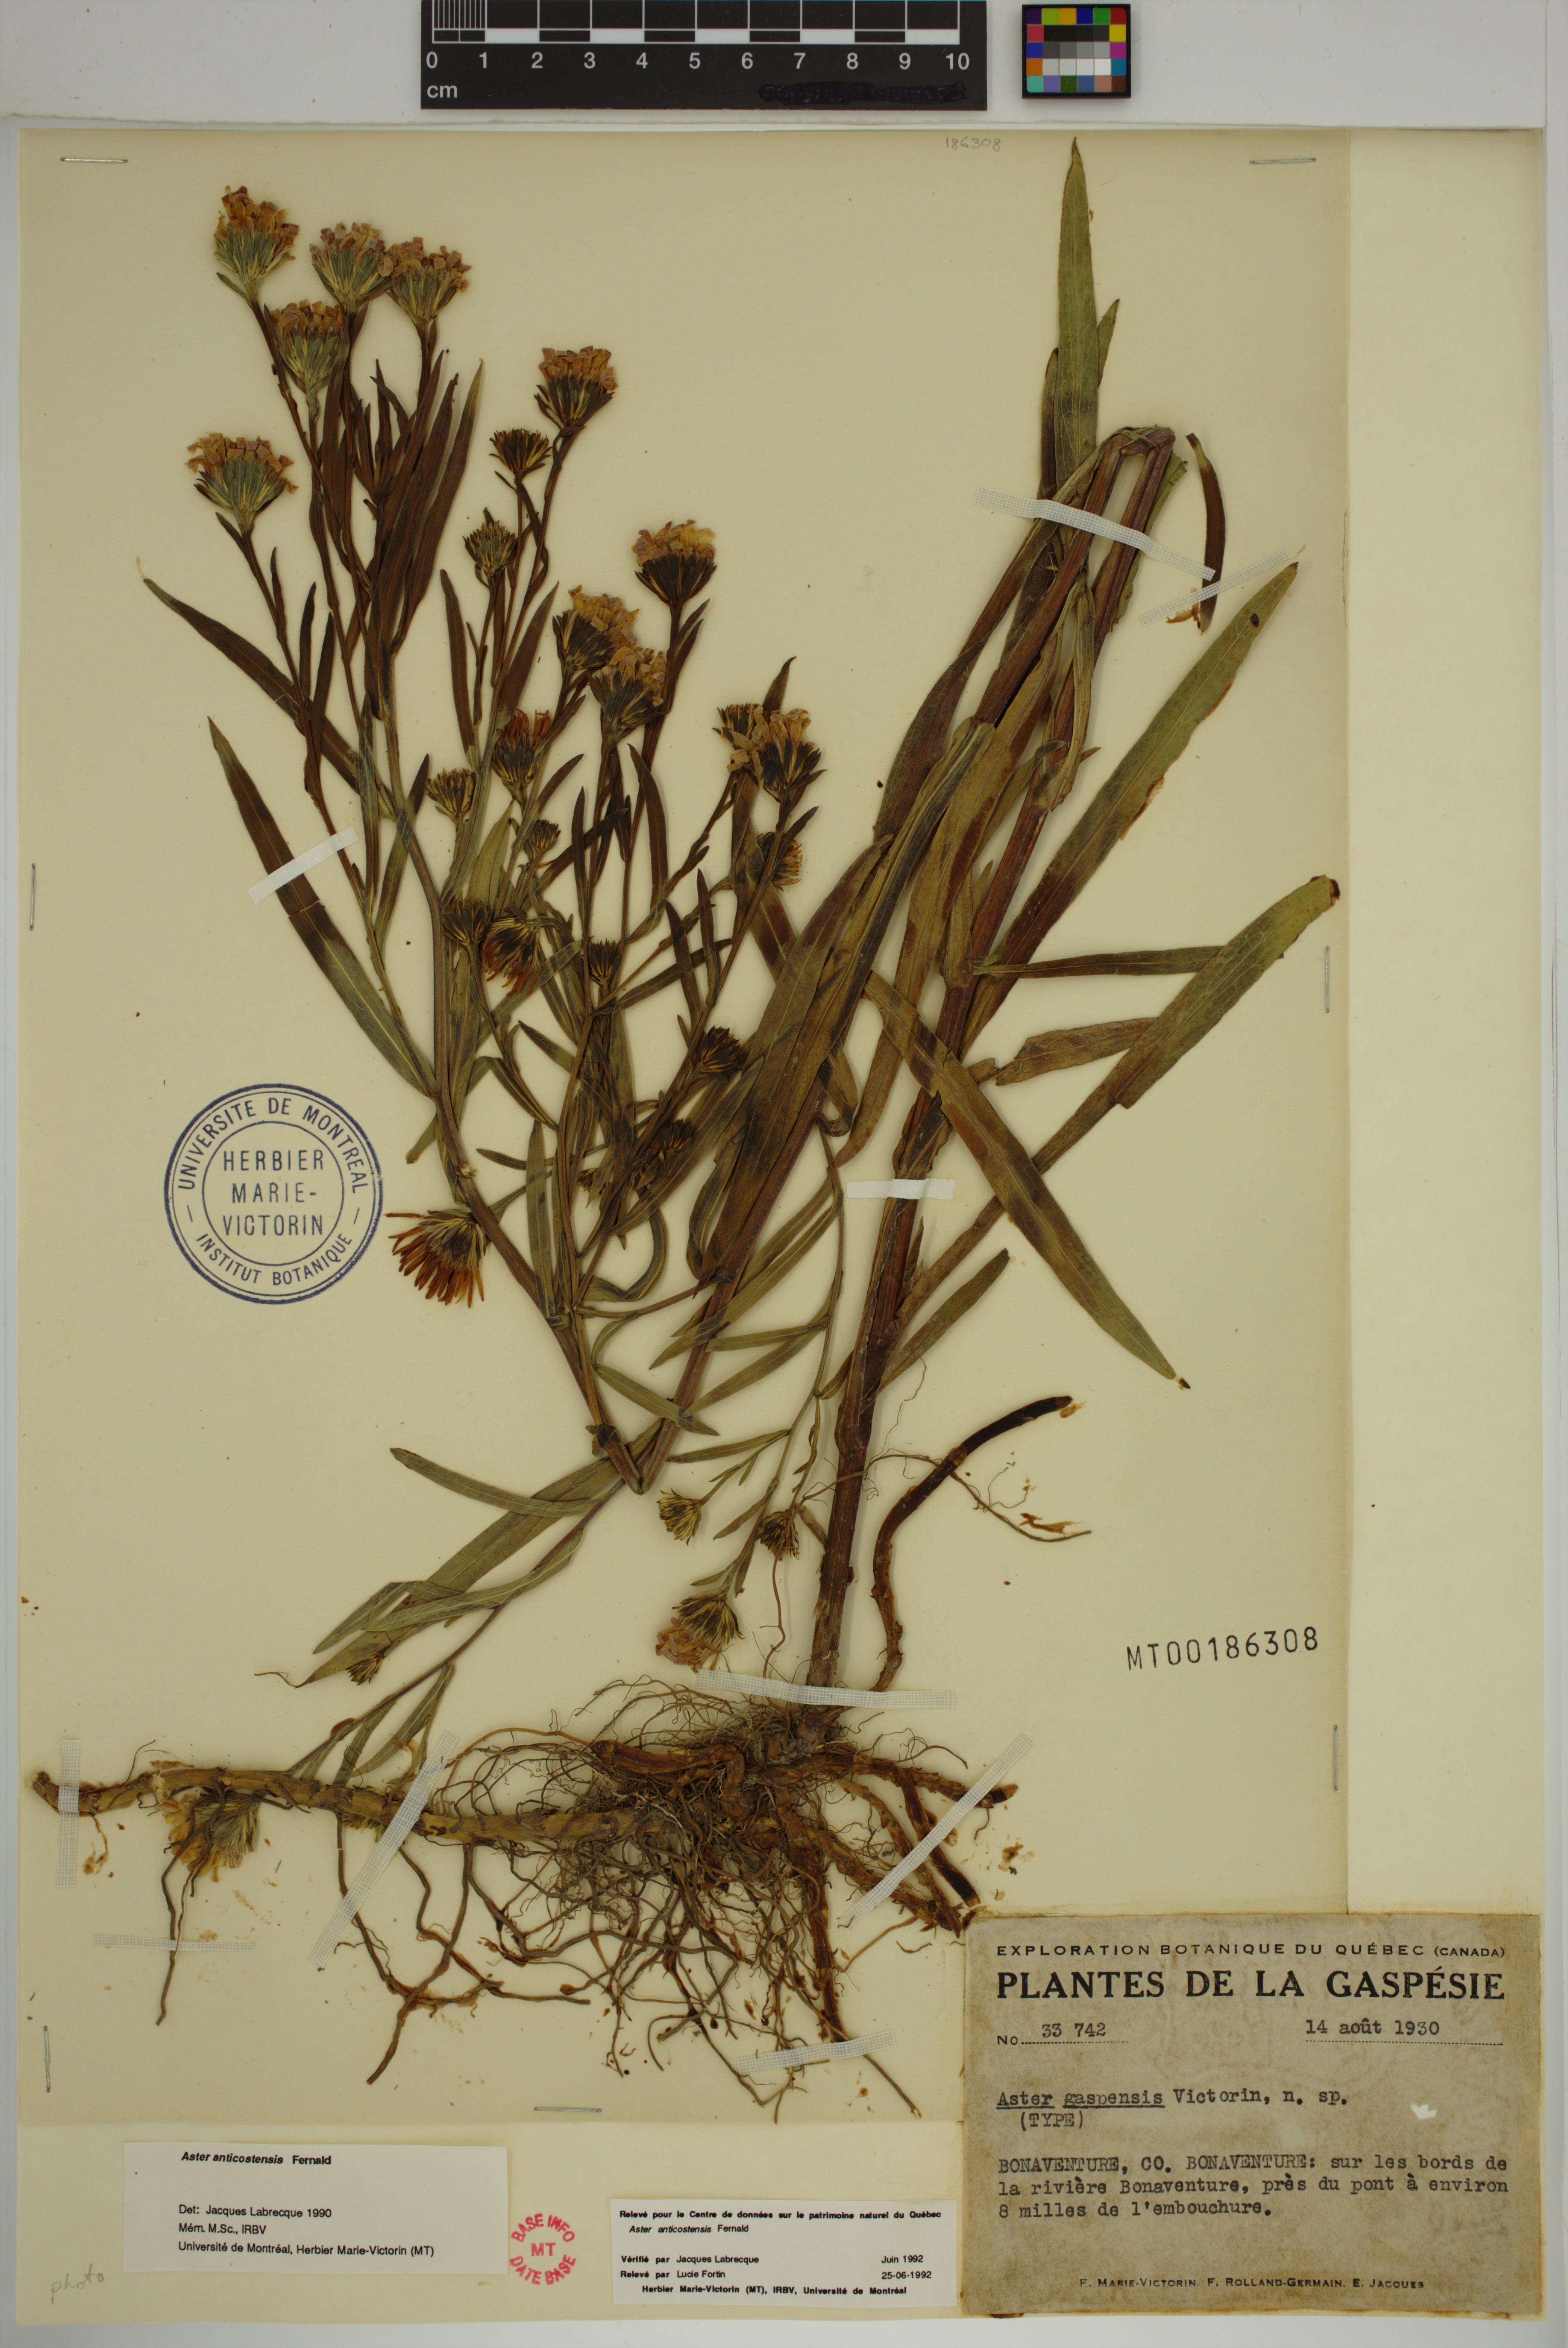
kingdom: Plantae
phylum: Tracheophyta
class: Magnoliopsida
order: Asterales
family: Asteraceae
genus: Symphyotrichum
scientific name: Symphyotrichum anticostense
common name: Anticosti island aster
